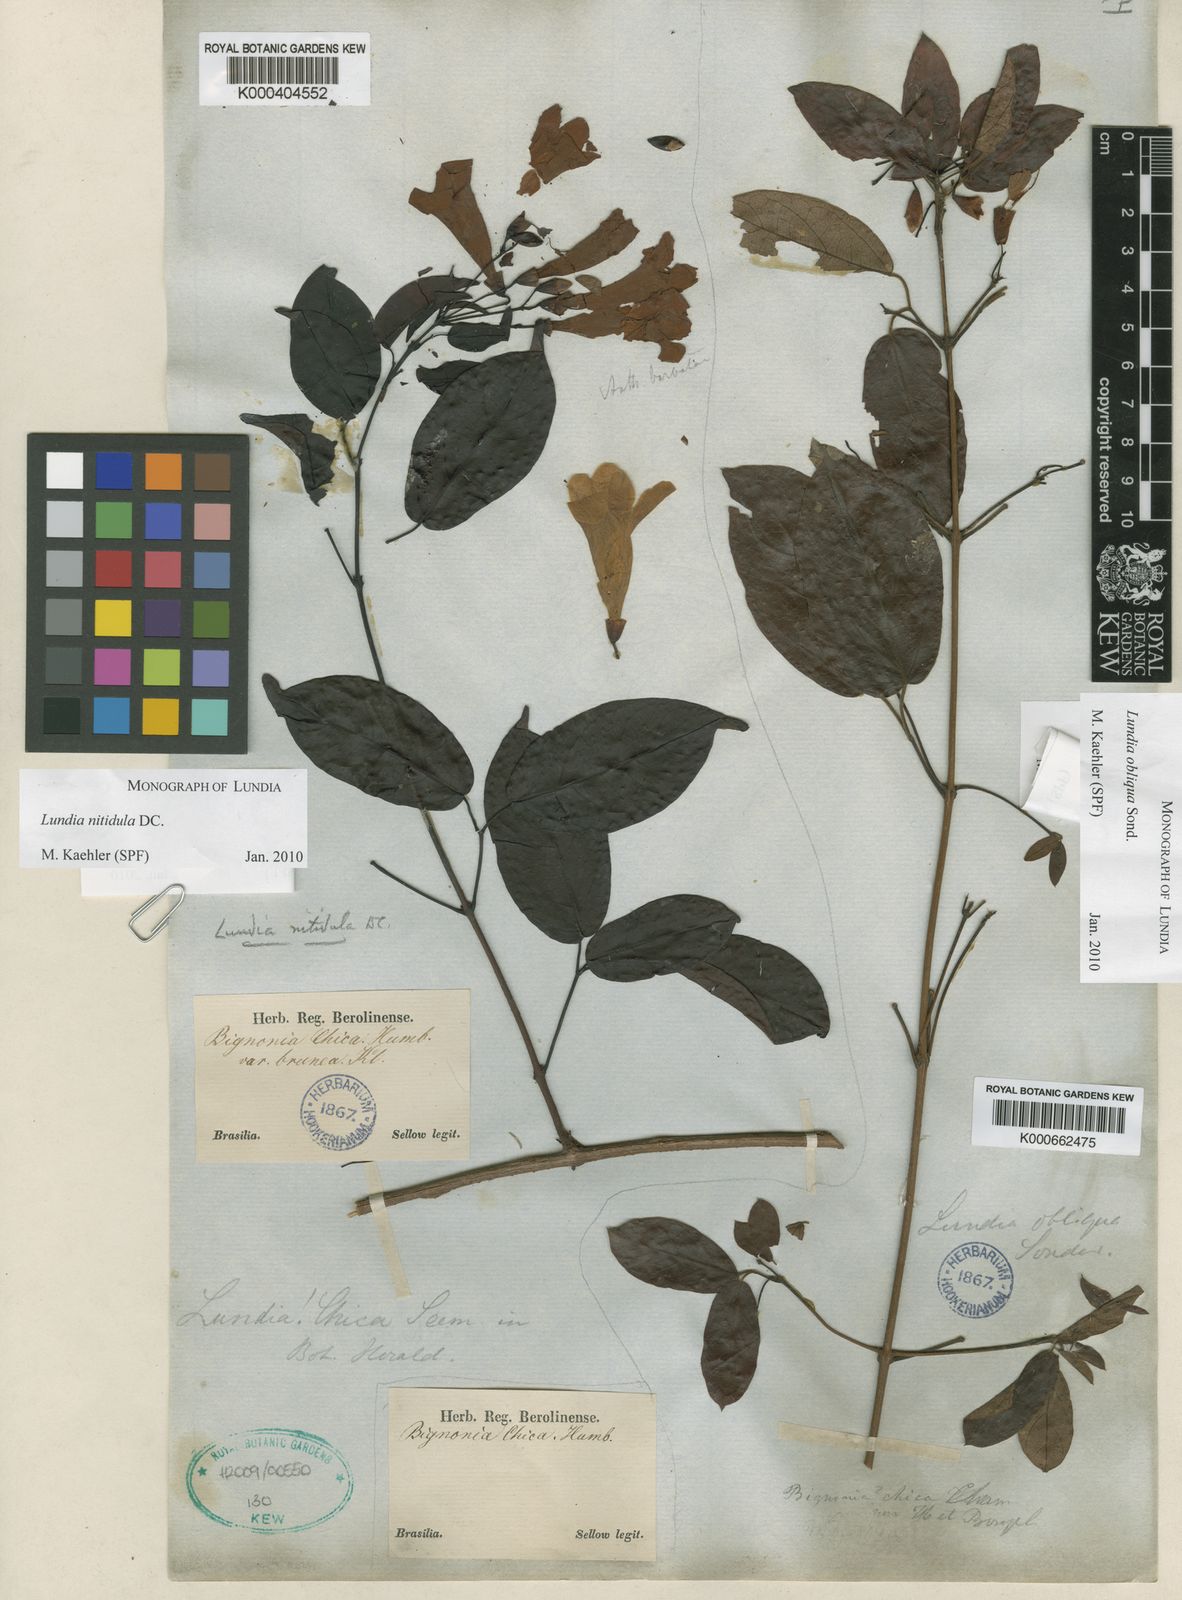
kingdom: Plantae
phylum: Tracheophyta
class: Magnoliopsida
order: Lamiales
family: Bignoniaceae
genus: Lundia
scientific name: Lundia nitidula
